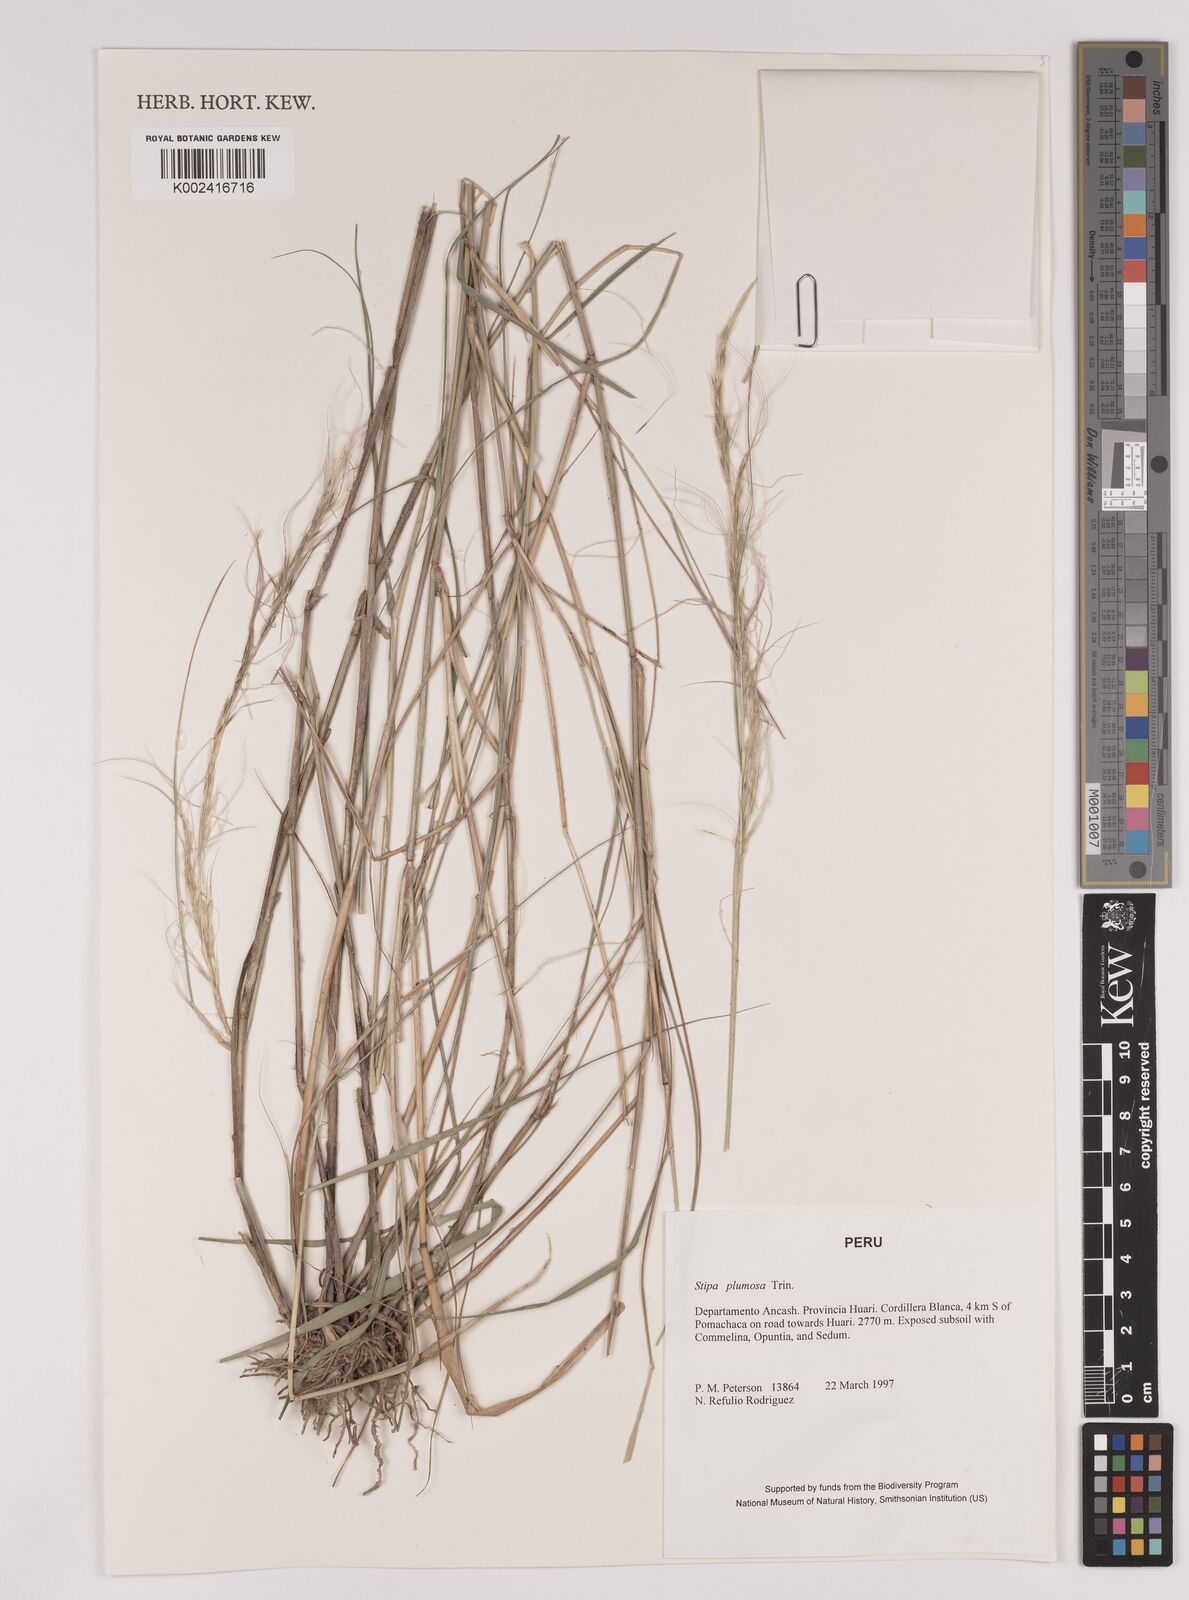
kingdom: Plantae
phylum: Tracheophyta
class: Liliopsida
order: Poales
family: Poaceae
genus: Stipa
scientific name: Stipa plumosa
